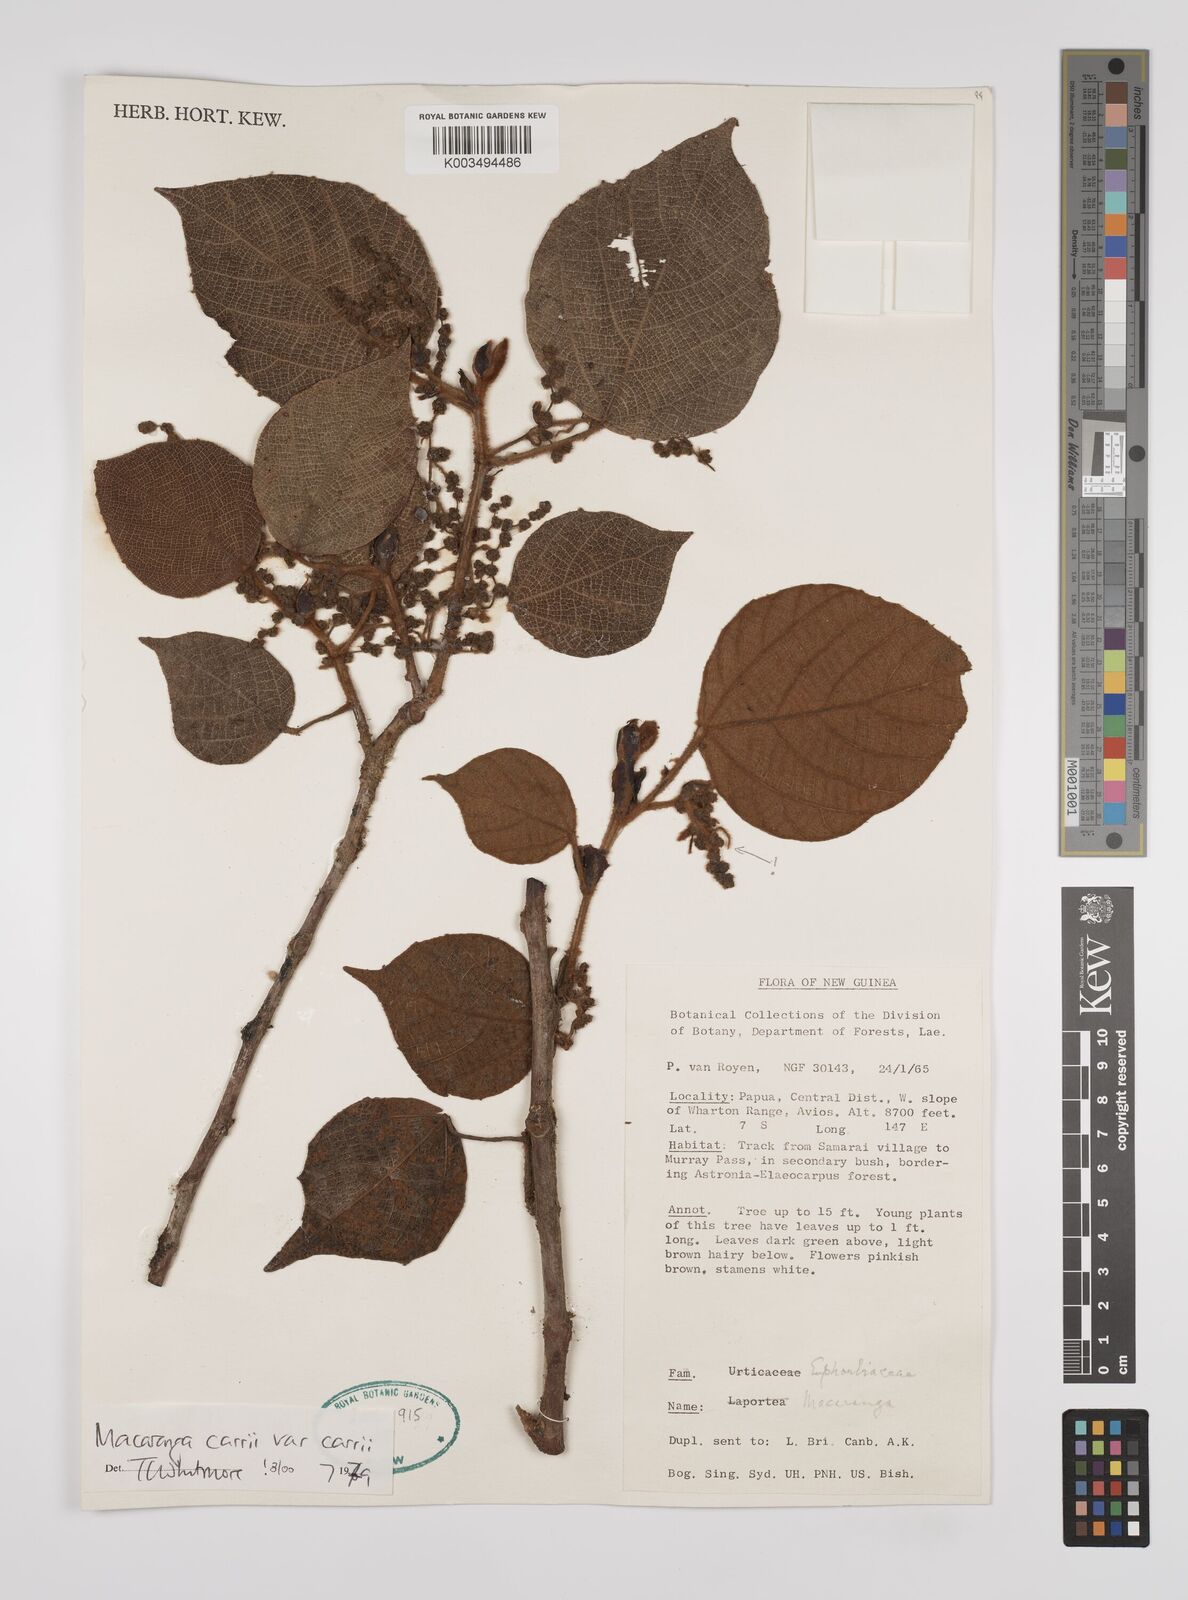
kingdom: Plantae
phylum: Tracheophyta
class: Magnoliopsida
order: Malpighiales
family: Euphorbiaceae
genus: Macaranga
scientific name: Macaranga carrii
